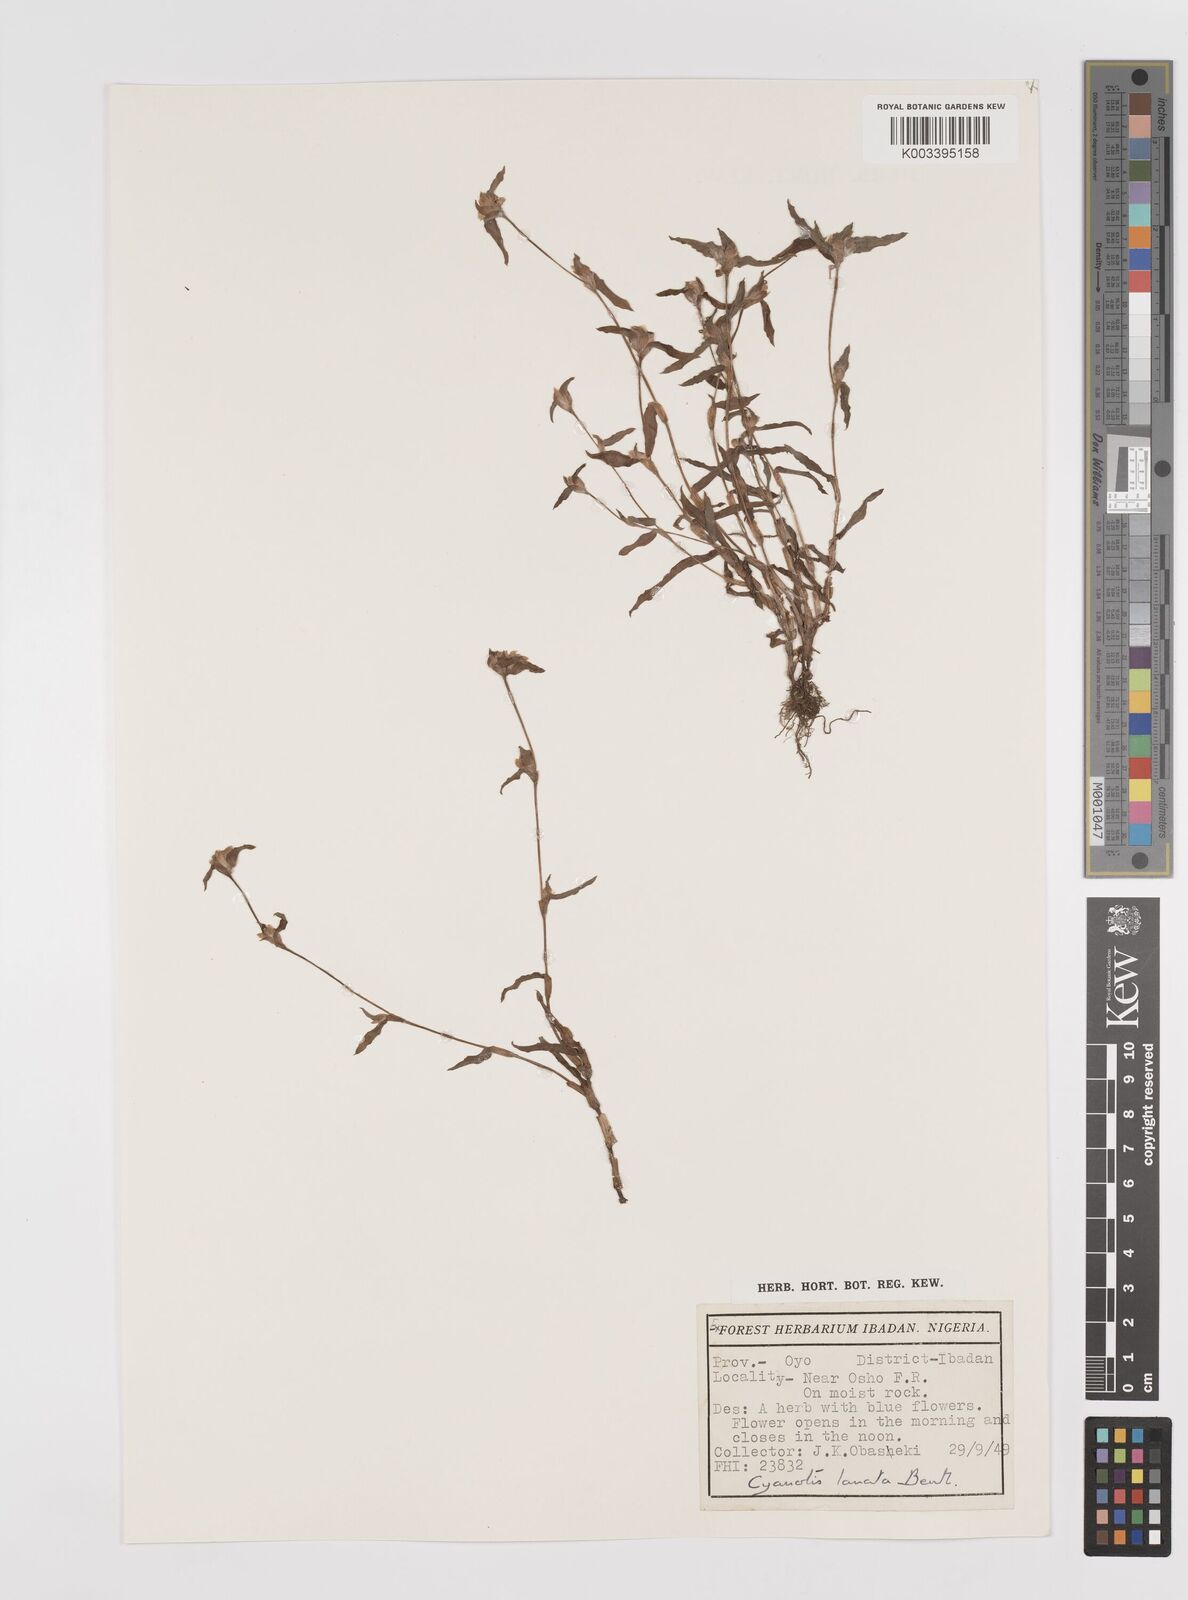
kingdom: Plantae
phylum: Tracheophyta
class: Liliopsida
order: Commelinales
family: Commelinaceae
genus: Cyanotis
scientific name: Cyanotis lanata
